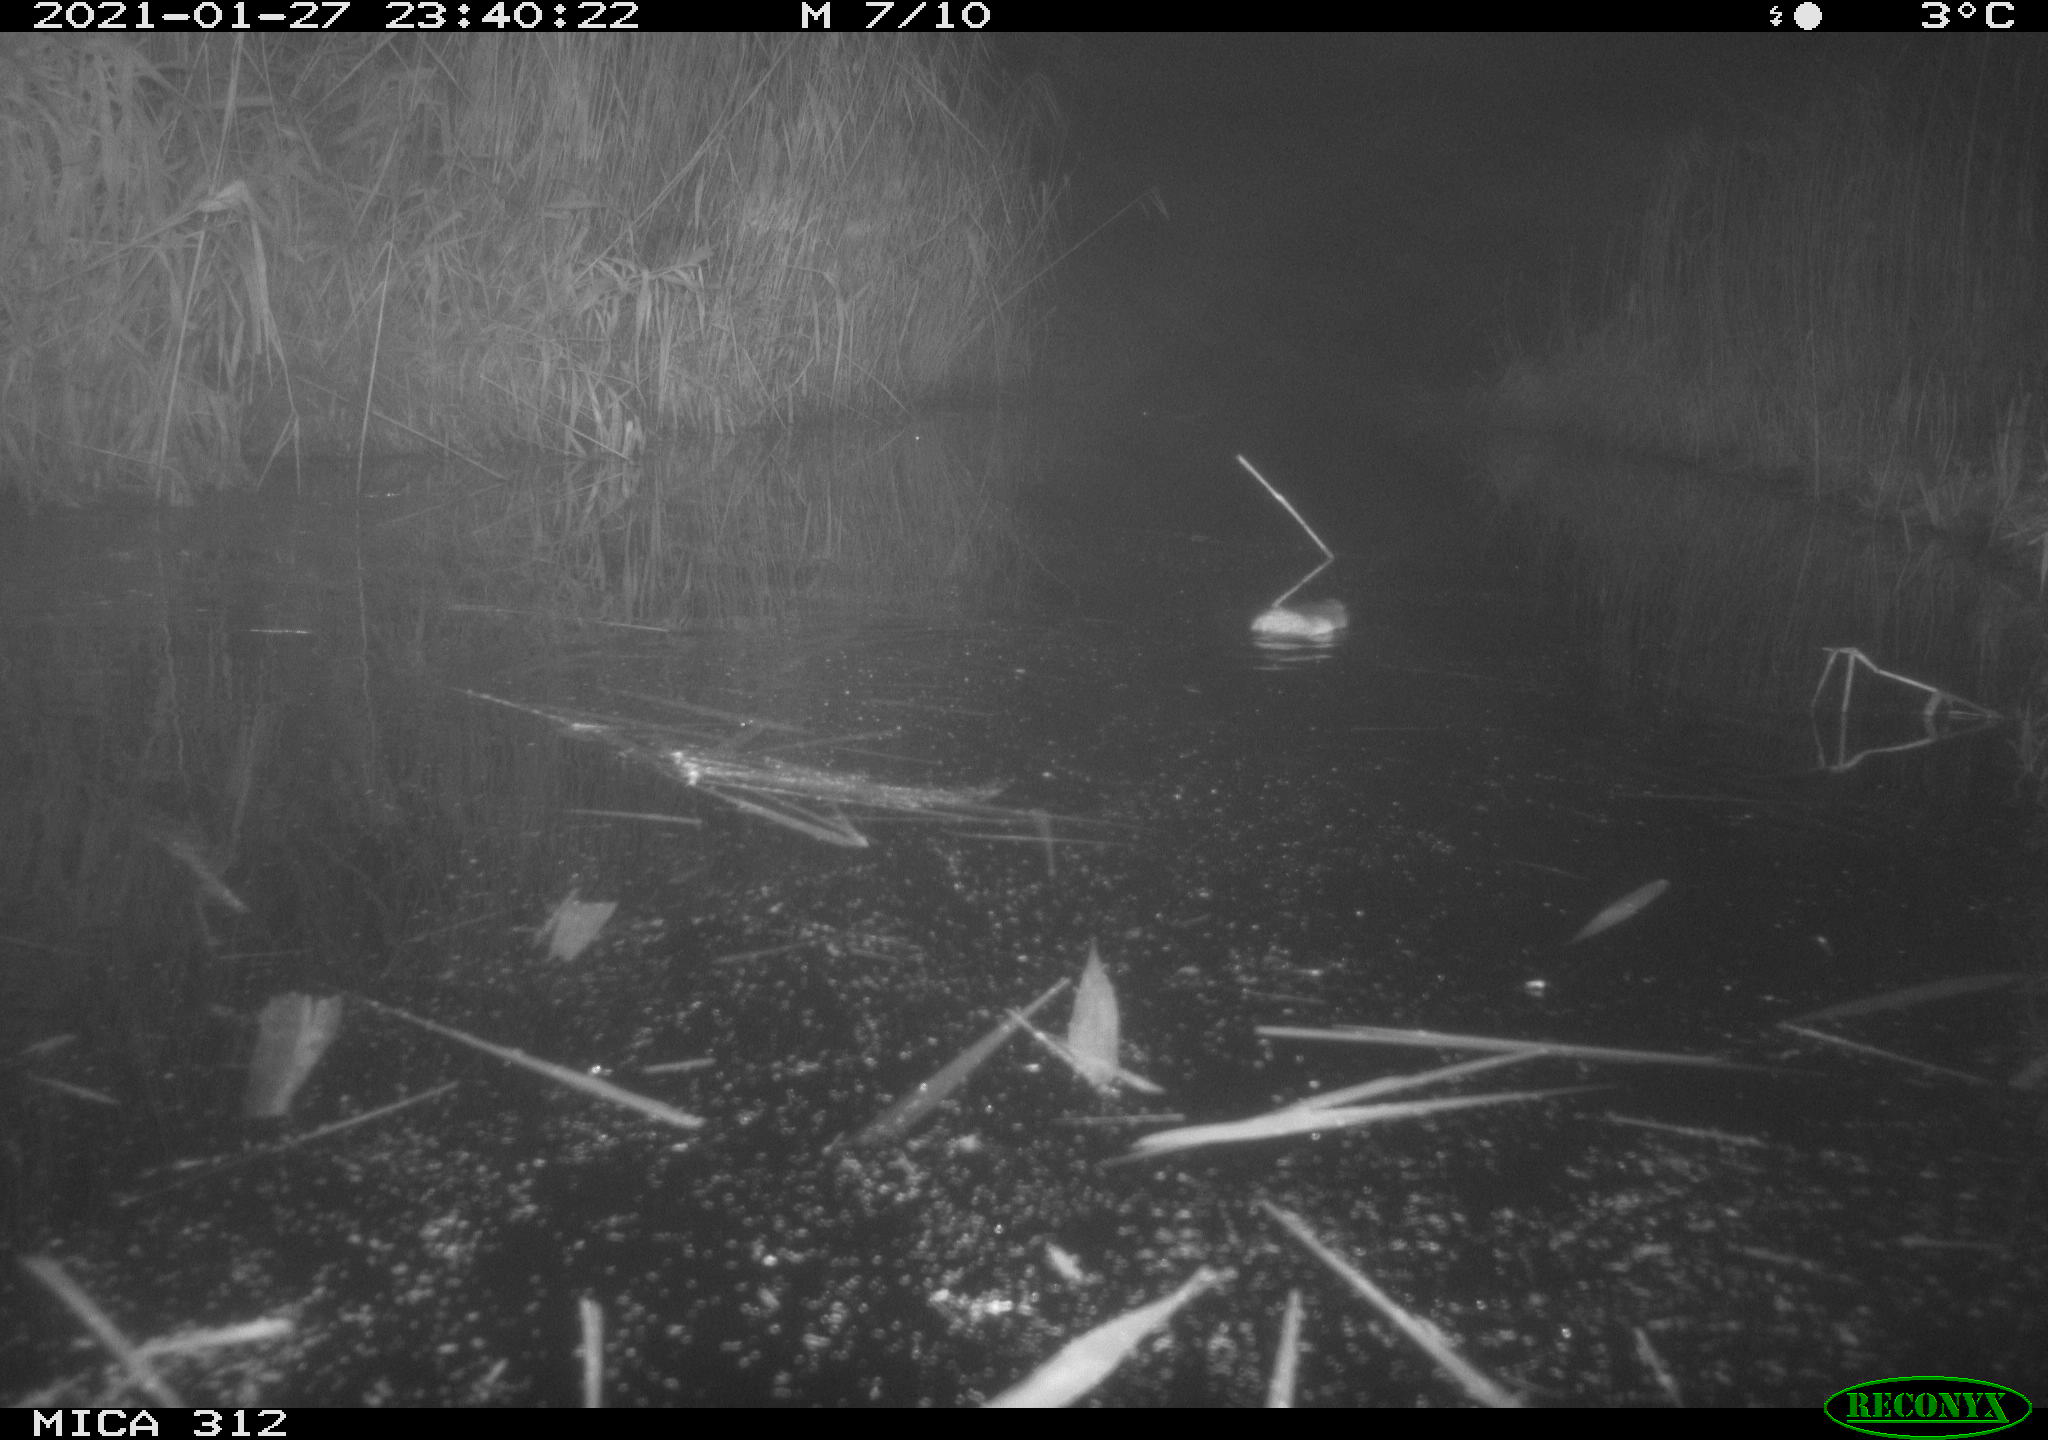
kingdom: Animalia
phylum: Chordata
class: Mammalia
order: Rodentia
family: Muridae
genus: Rattus
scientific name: Rattus norvegicus
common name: Brown rat
